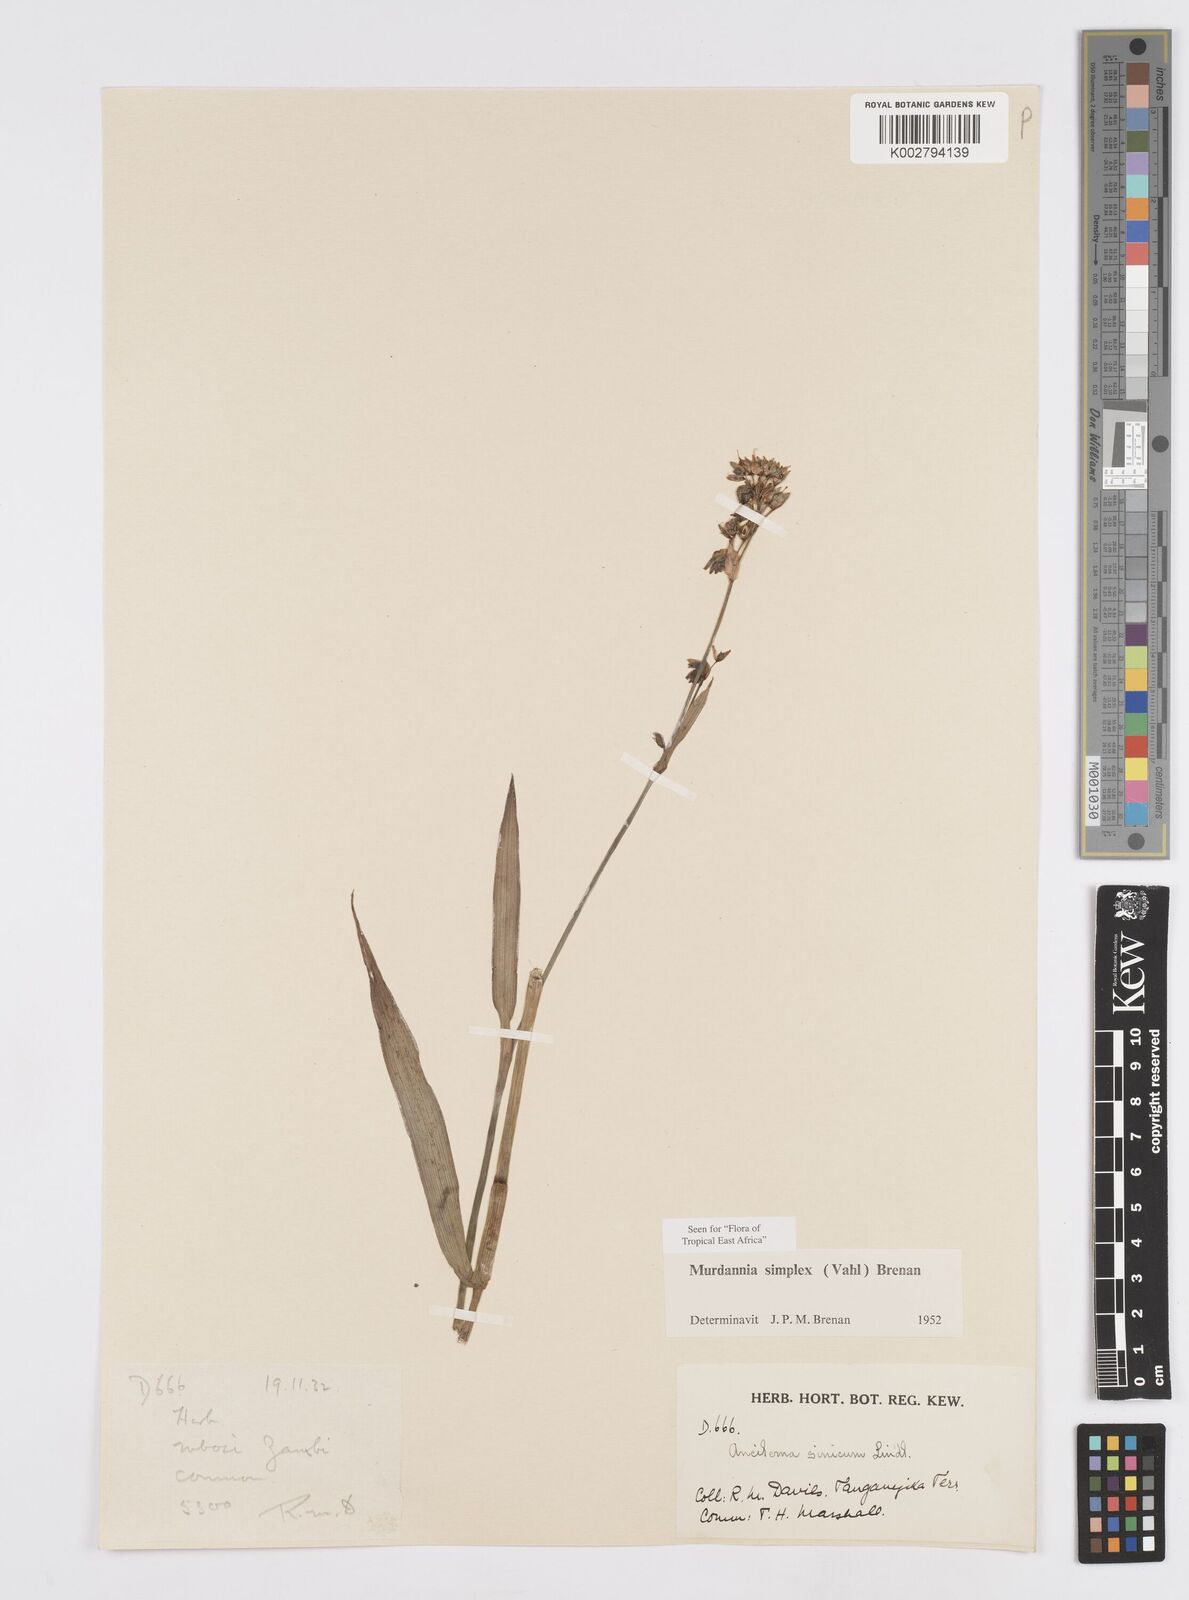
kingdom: Plantae
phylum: Tracheophyta
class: Liliopsida
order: Commelinales
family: Commelinaceae
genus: Murdannia
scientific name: Murdannia simplex
